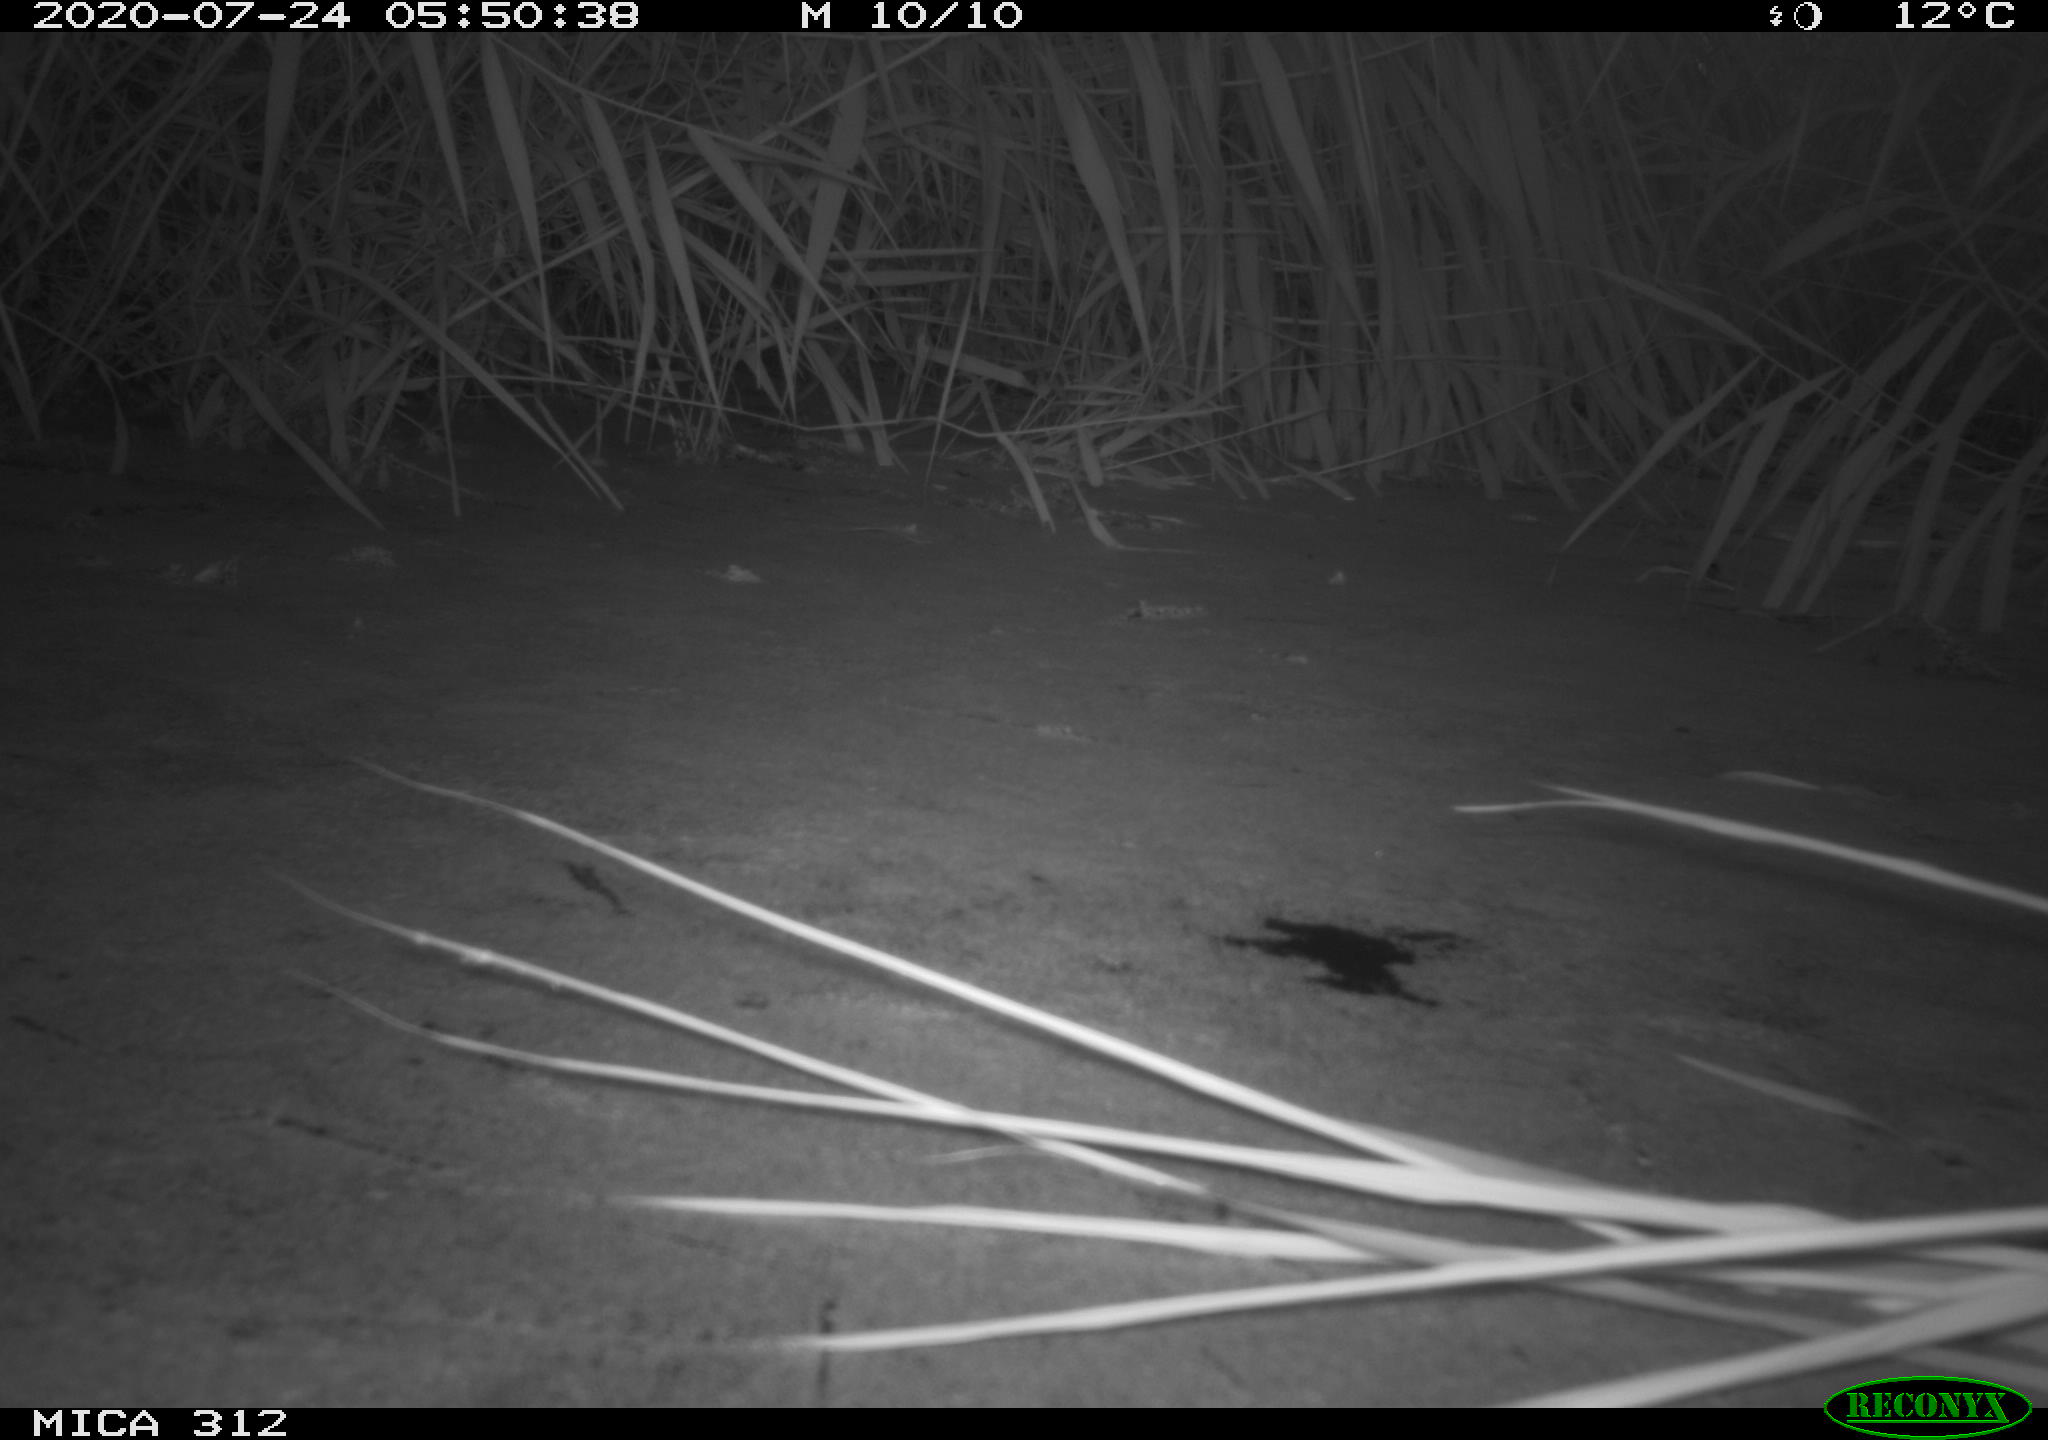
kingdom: Animalia
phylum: Chordata
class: Mammalia
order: Rodentia
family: Muridae
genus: Rattus
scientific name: Rattus norvegicus
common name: Brown rat
